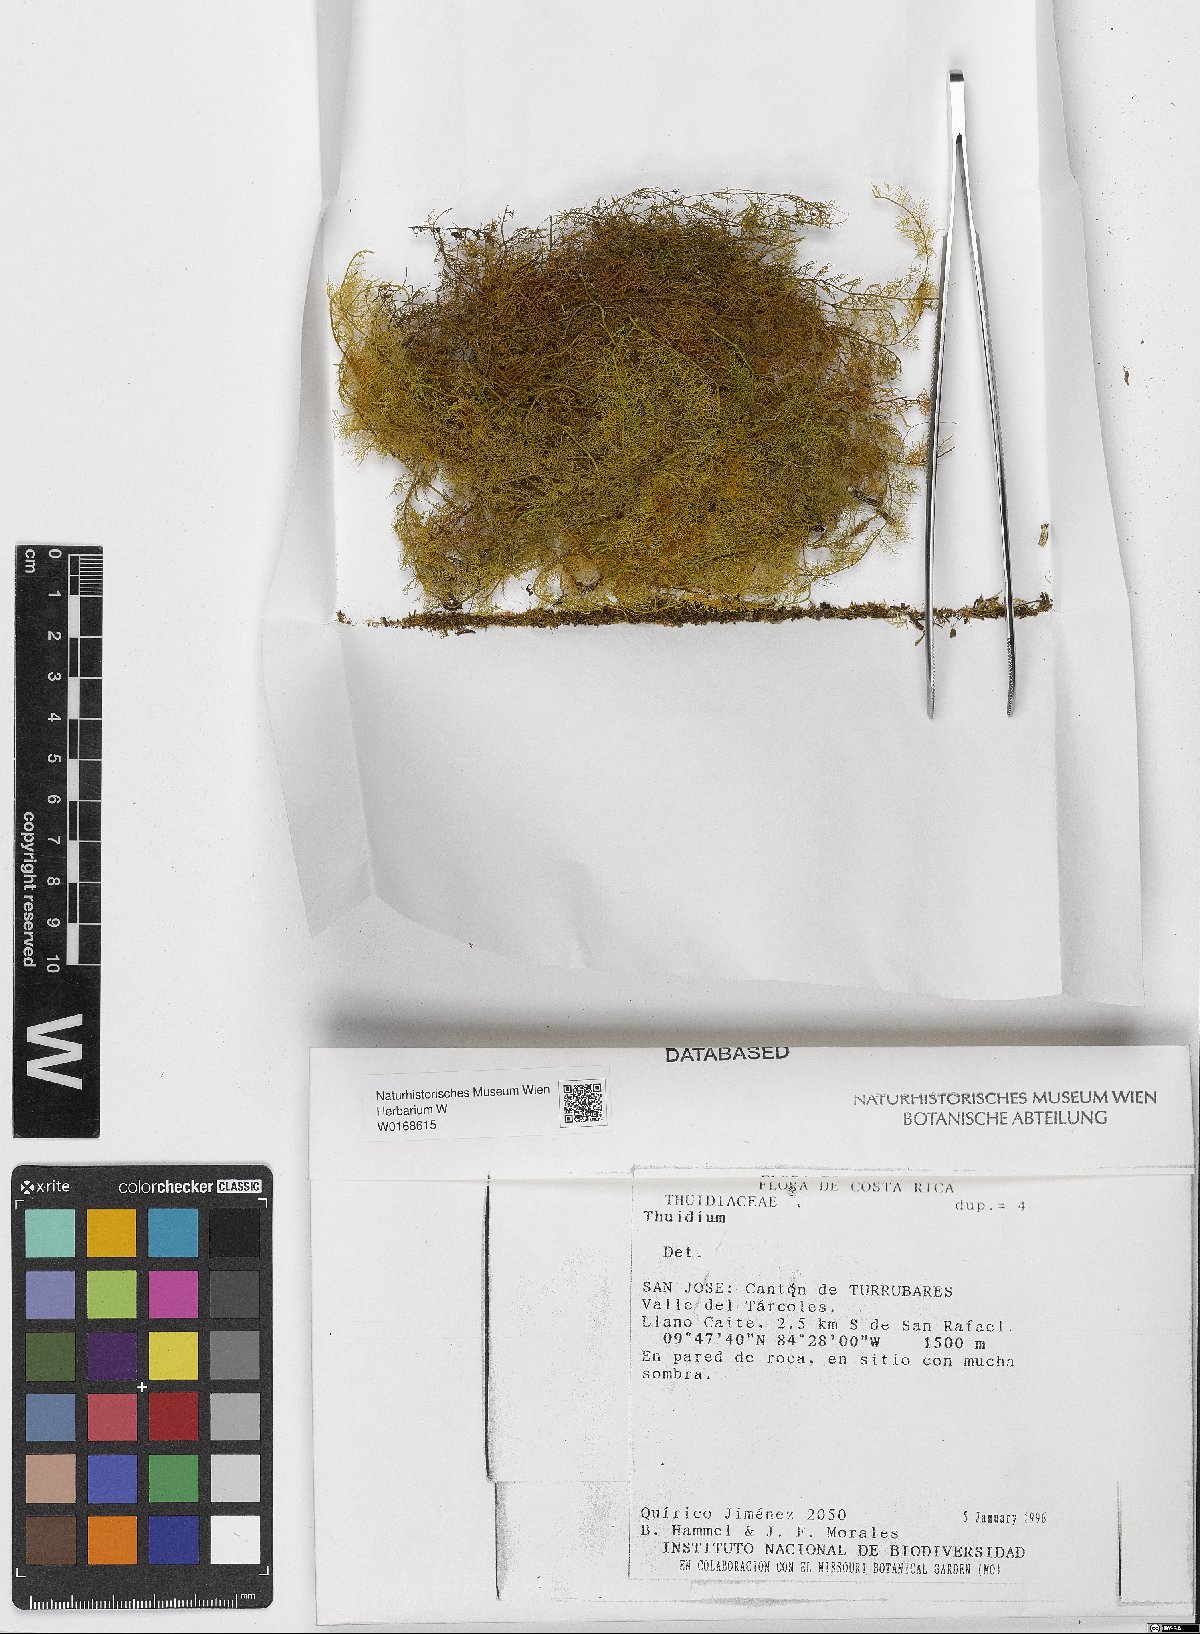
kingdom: Plantae
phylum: Bryophyta
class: Bryopsida
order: Hypnales
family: Thuidiaceae
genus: Thuidium
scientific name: Thuidium
